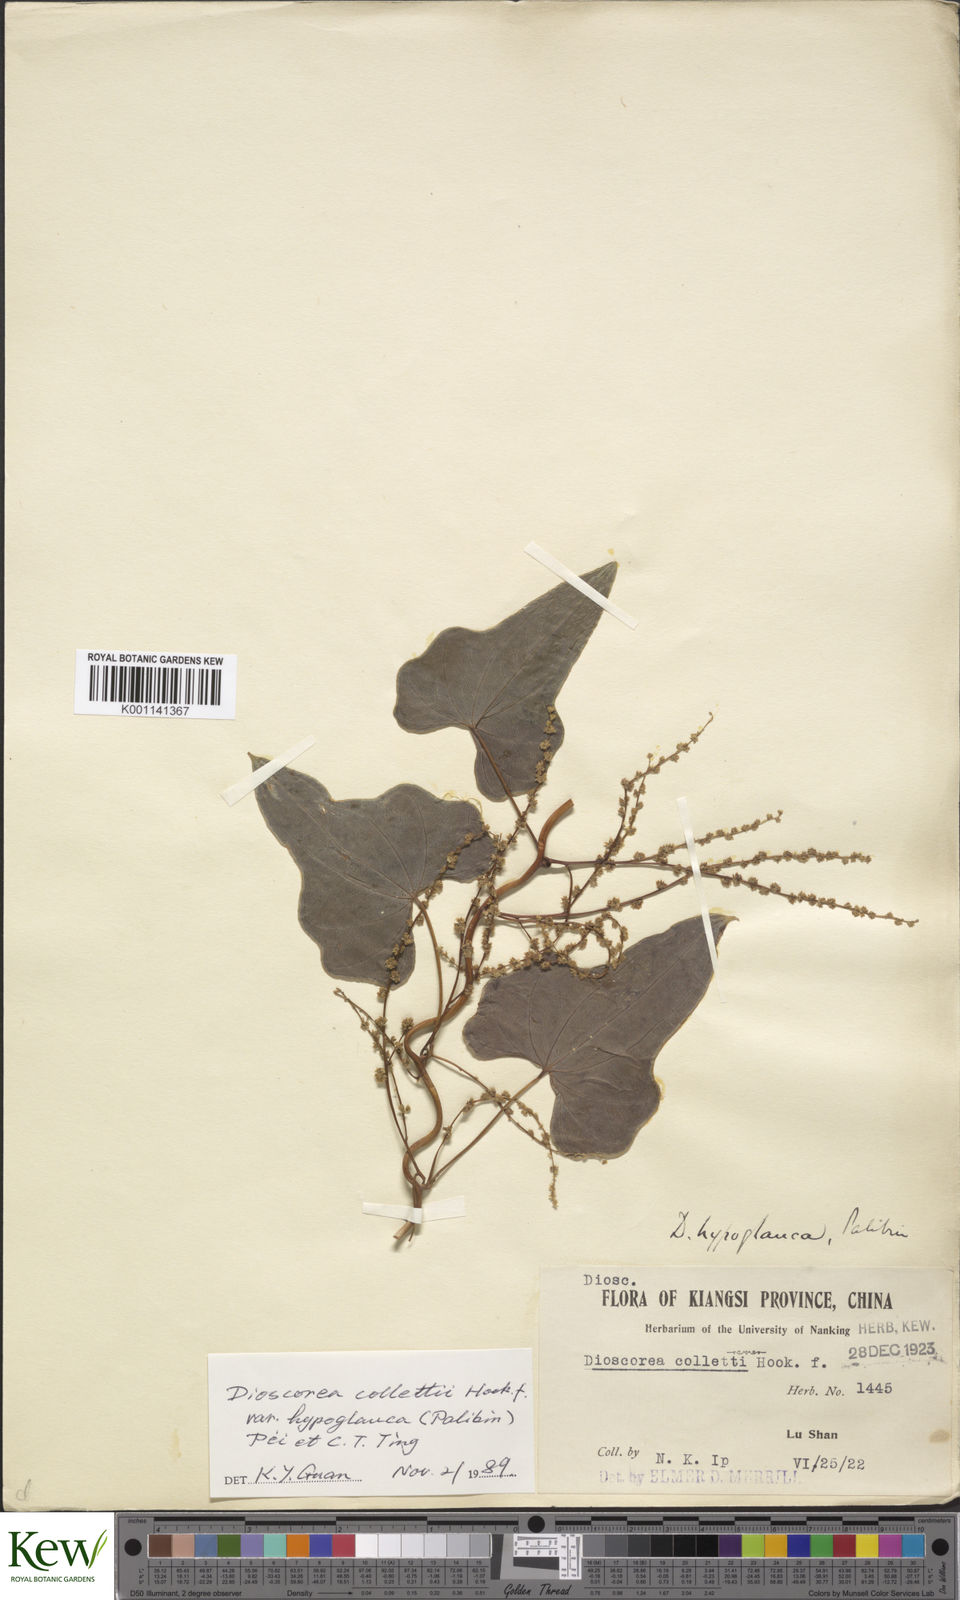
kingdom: Plantae
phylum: Tracheophyta
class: Liliopsida
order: Dioscoreales
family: Dioscoreaceae
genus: Dioscorea
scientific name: Dioscorea collettii
